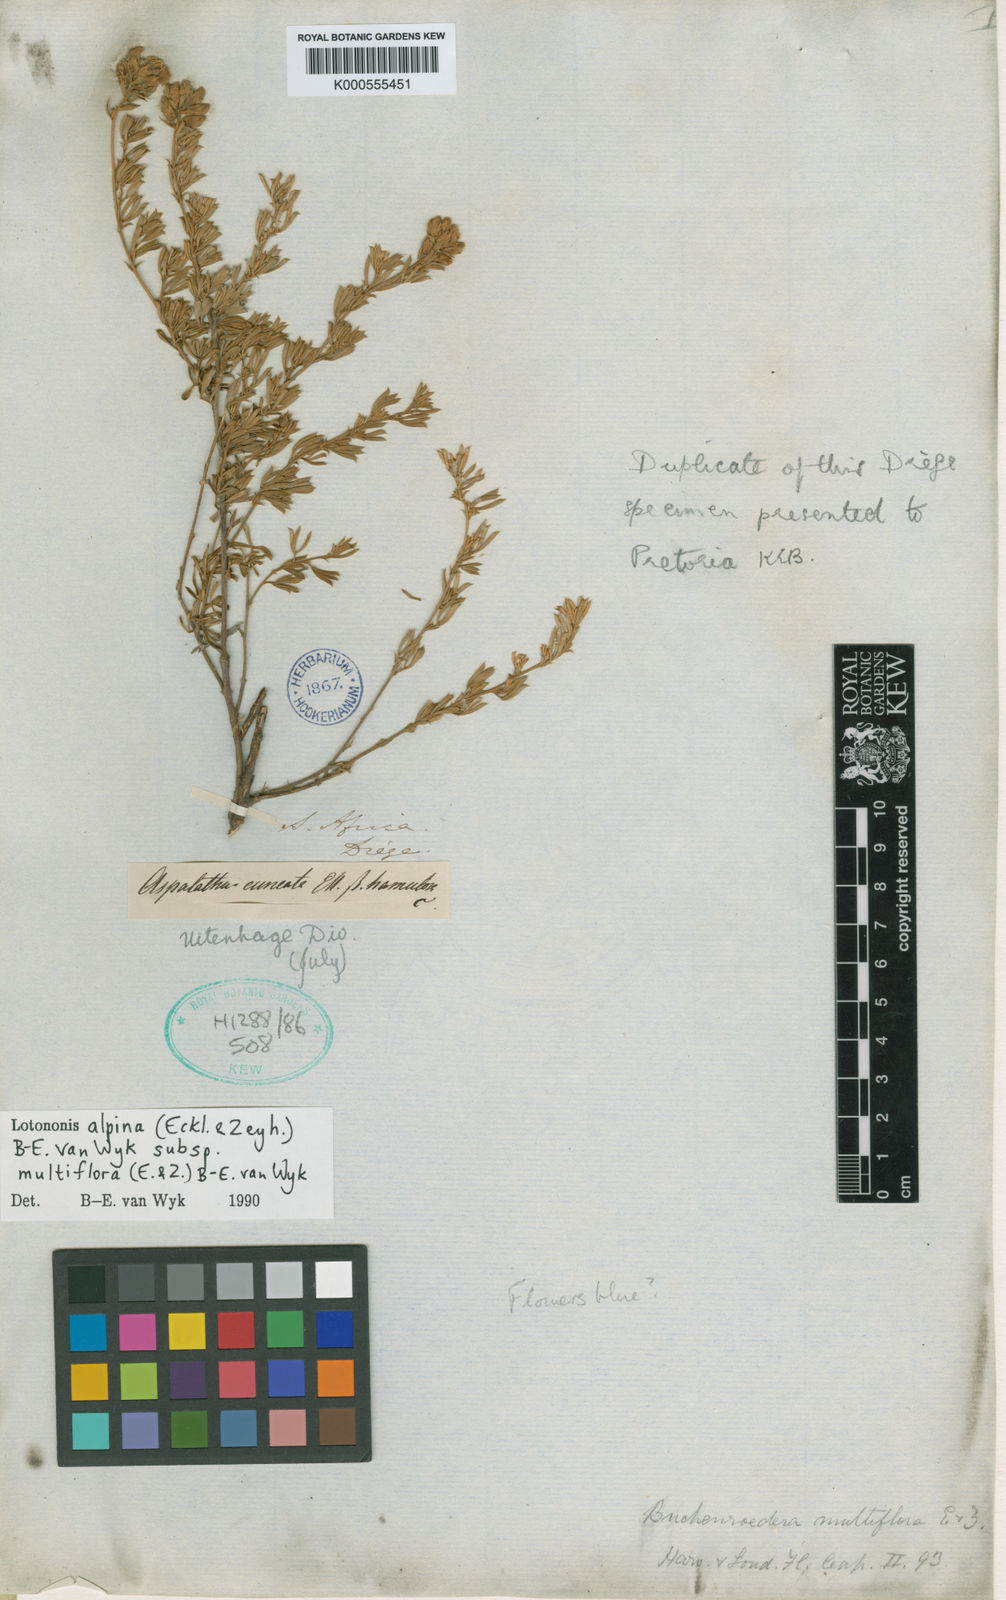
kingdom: Plantae
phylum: Tracheophyta
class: Magnoliopsida
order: Fabales
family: Fabaceae
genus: Lotononis
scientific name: Lotononis alpina
